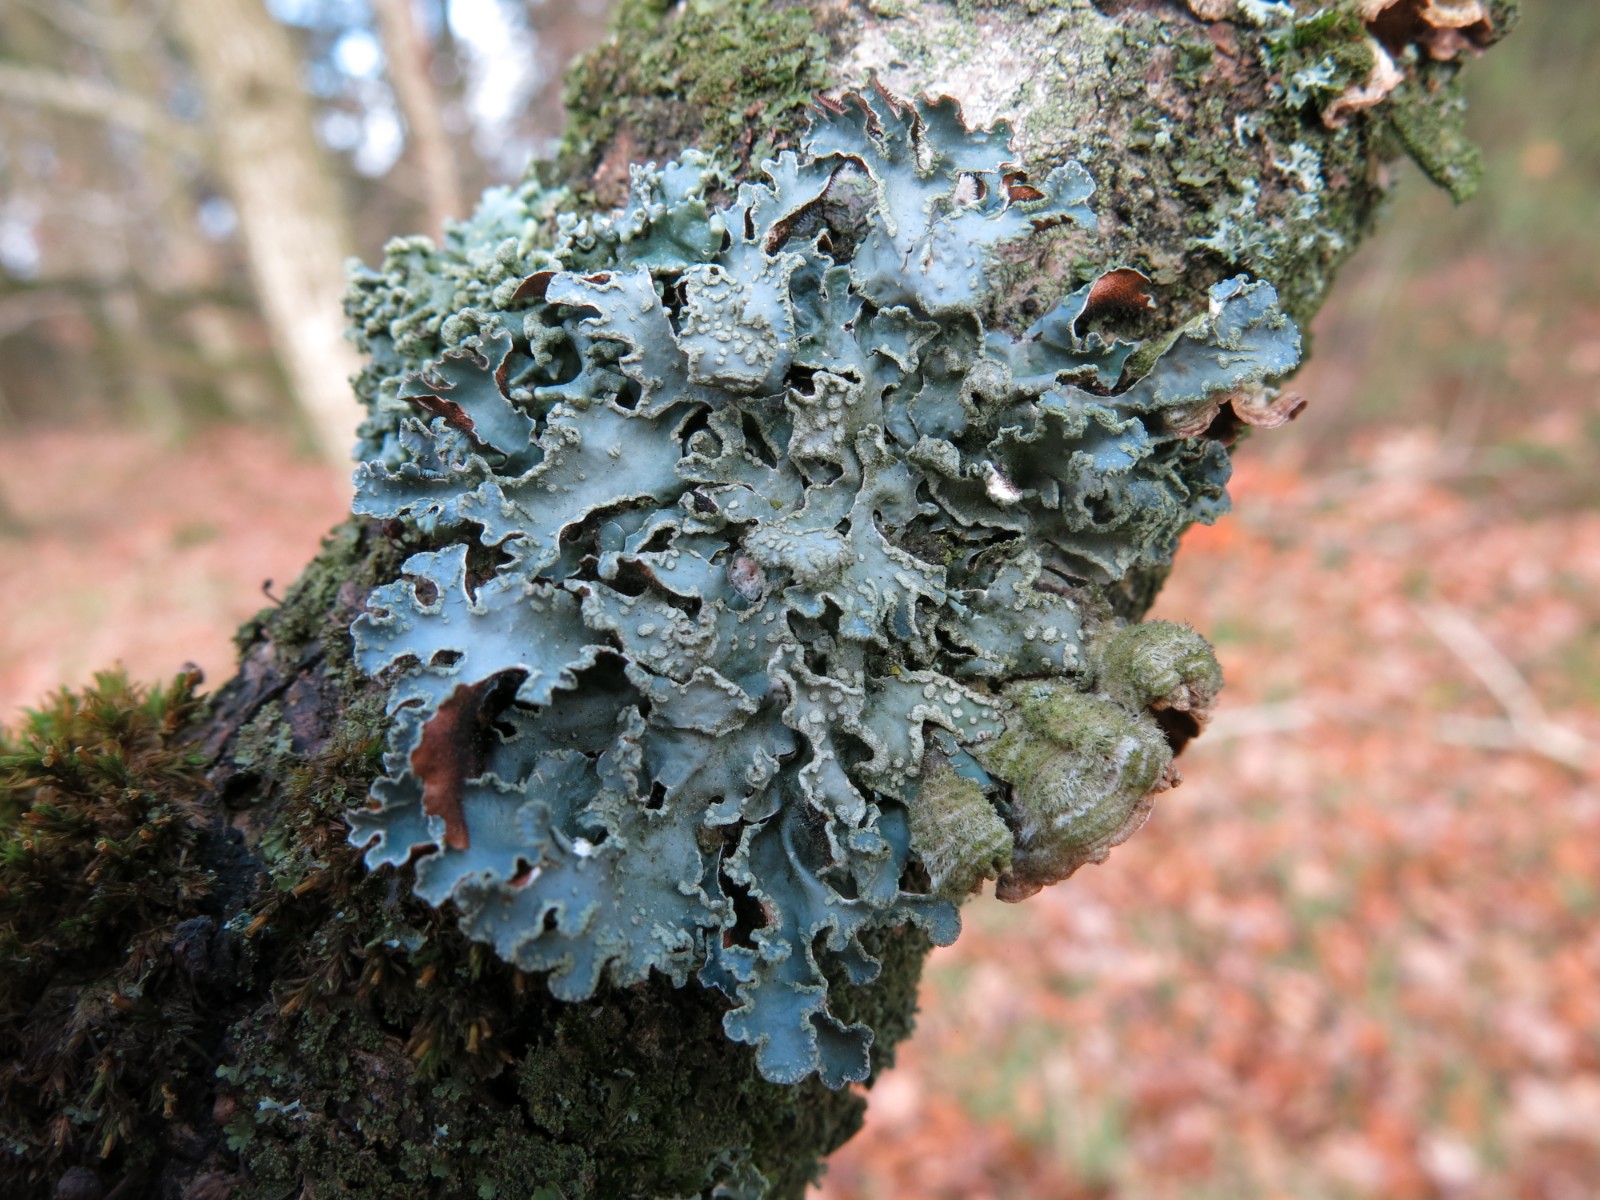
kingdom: Fungi
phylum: Ascomycota
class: Lecanoromycetes
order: Lecanorales
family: Parmeliaceae
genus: Parmelia
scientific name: Parmelia sulcata
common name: rynket skållav
